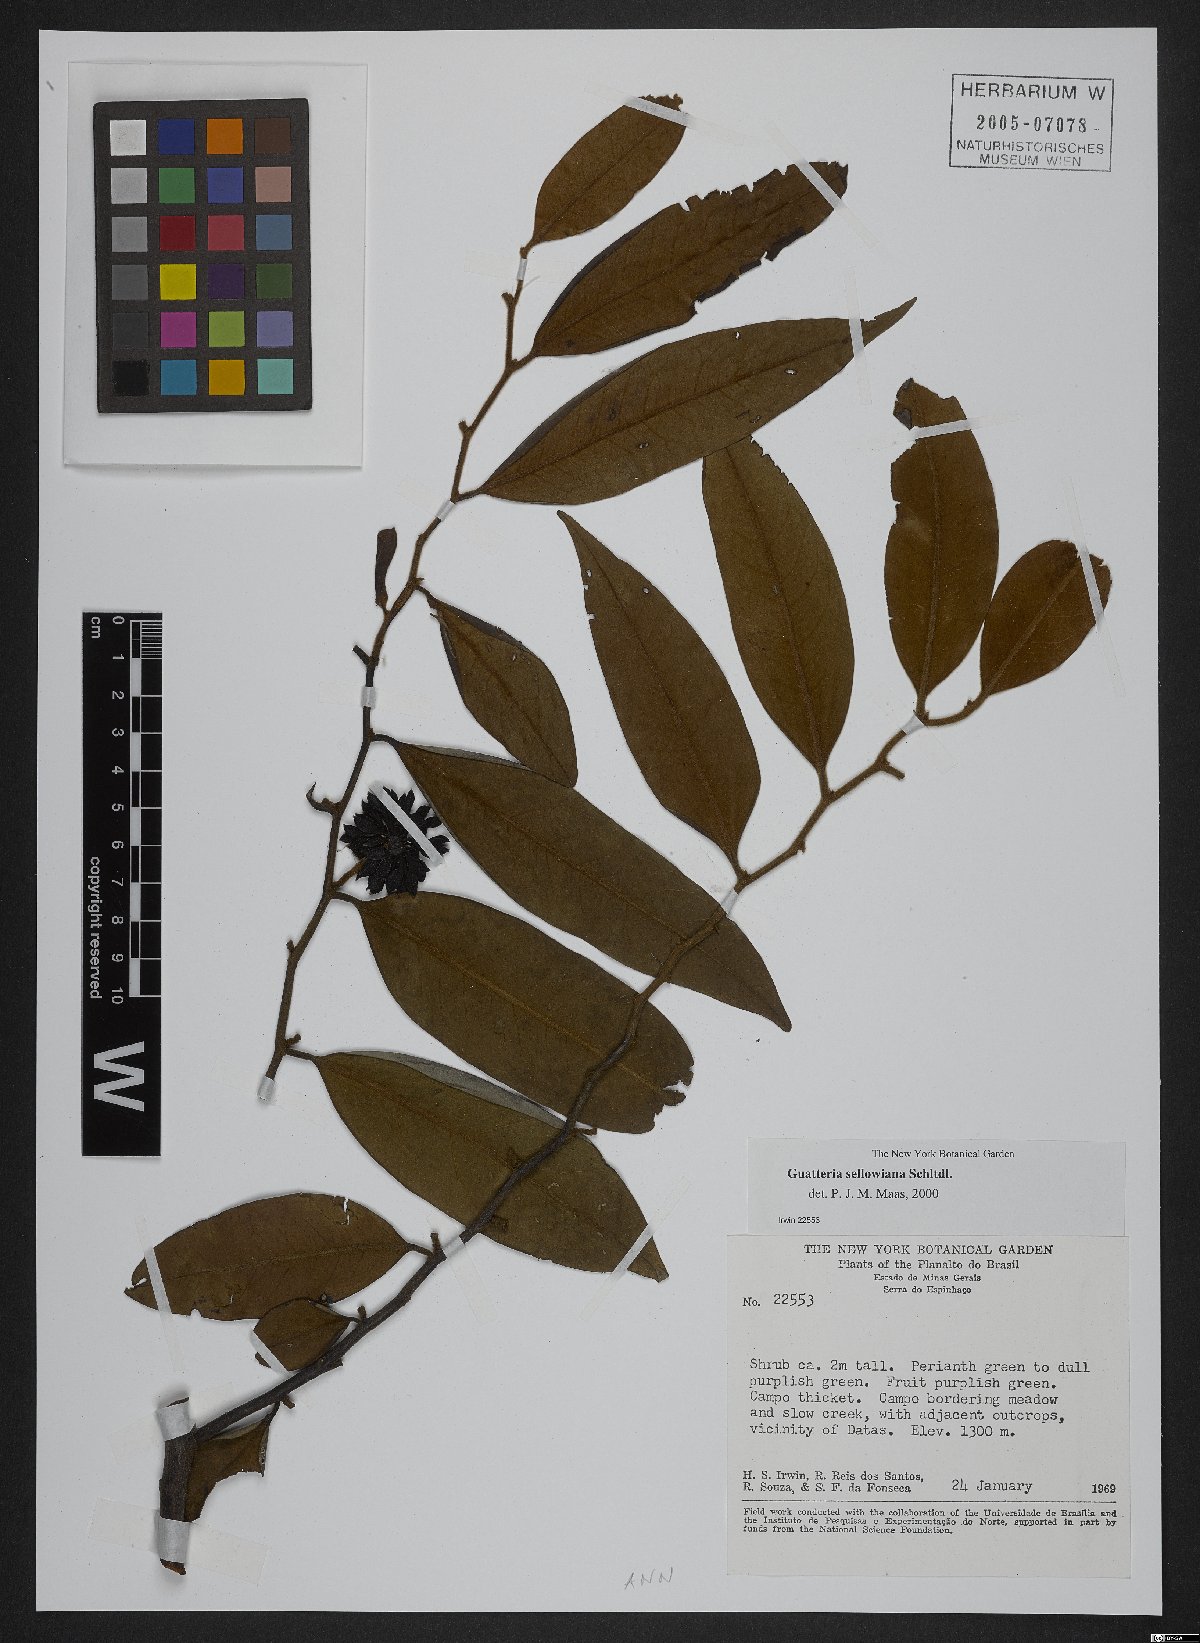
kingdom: Plantae
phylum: Tracheophyta
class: Magnoliopsida
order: Magnoliales
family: Annonaceae
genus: Guatteria
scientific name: Guatteria sellowiana
